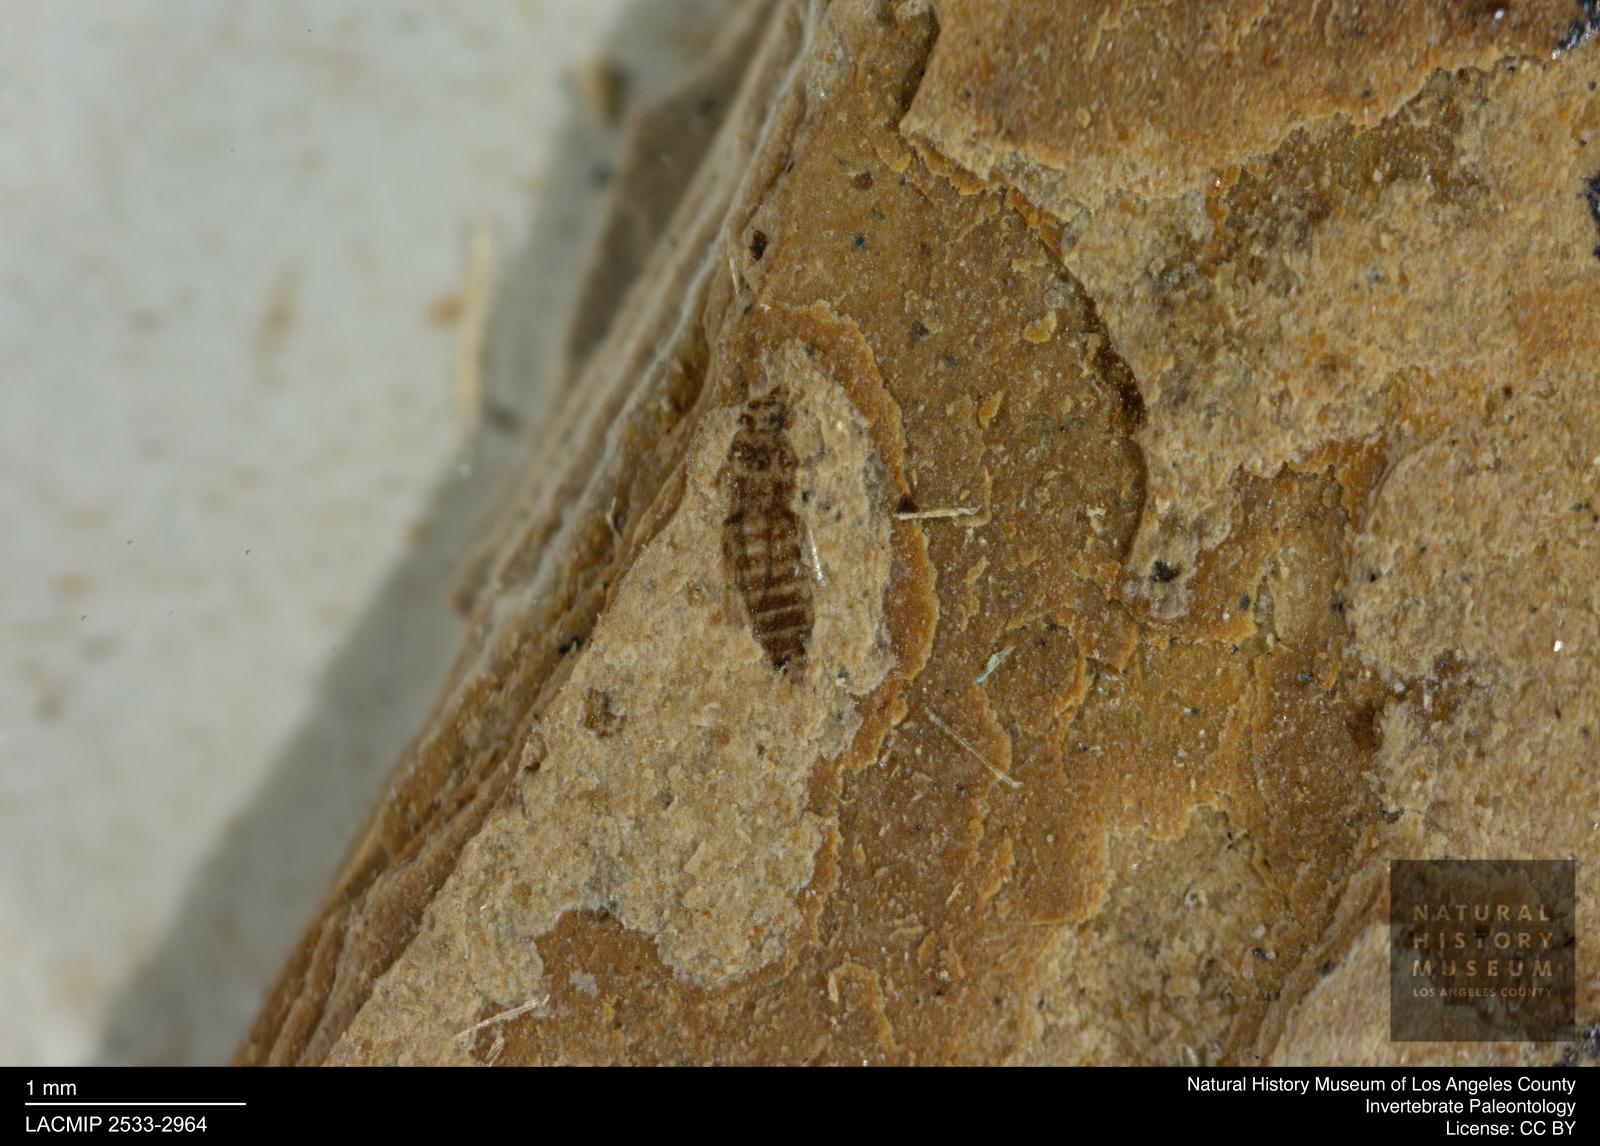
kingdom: Animalia
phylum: Arthropoda
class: Insecta
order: Thysanoptera
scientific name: Thysanoptera
